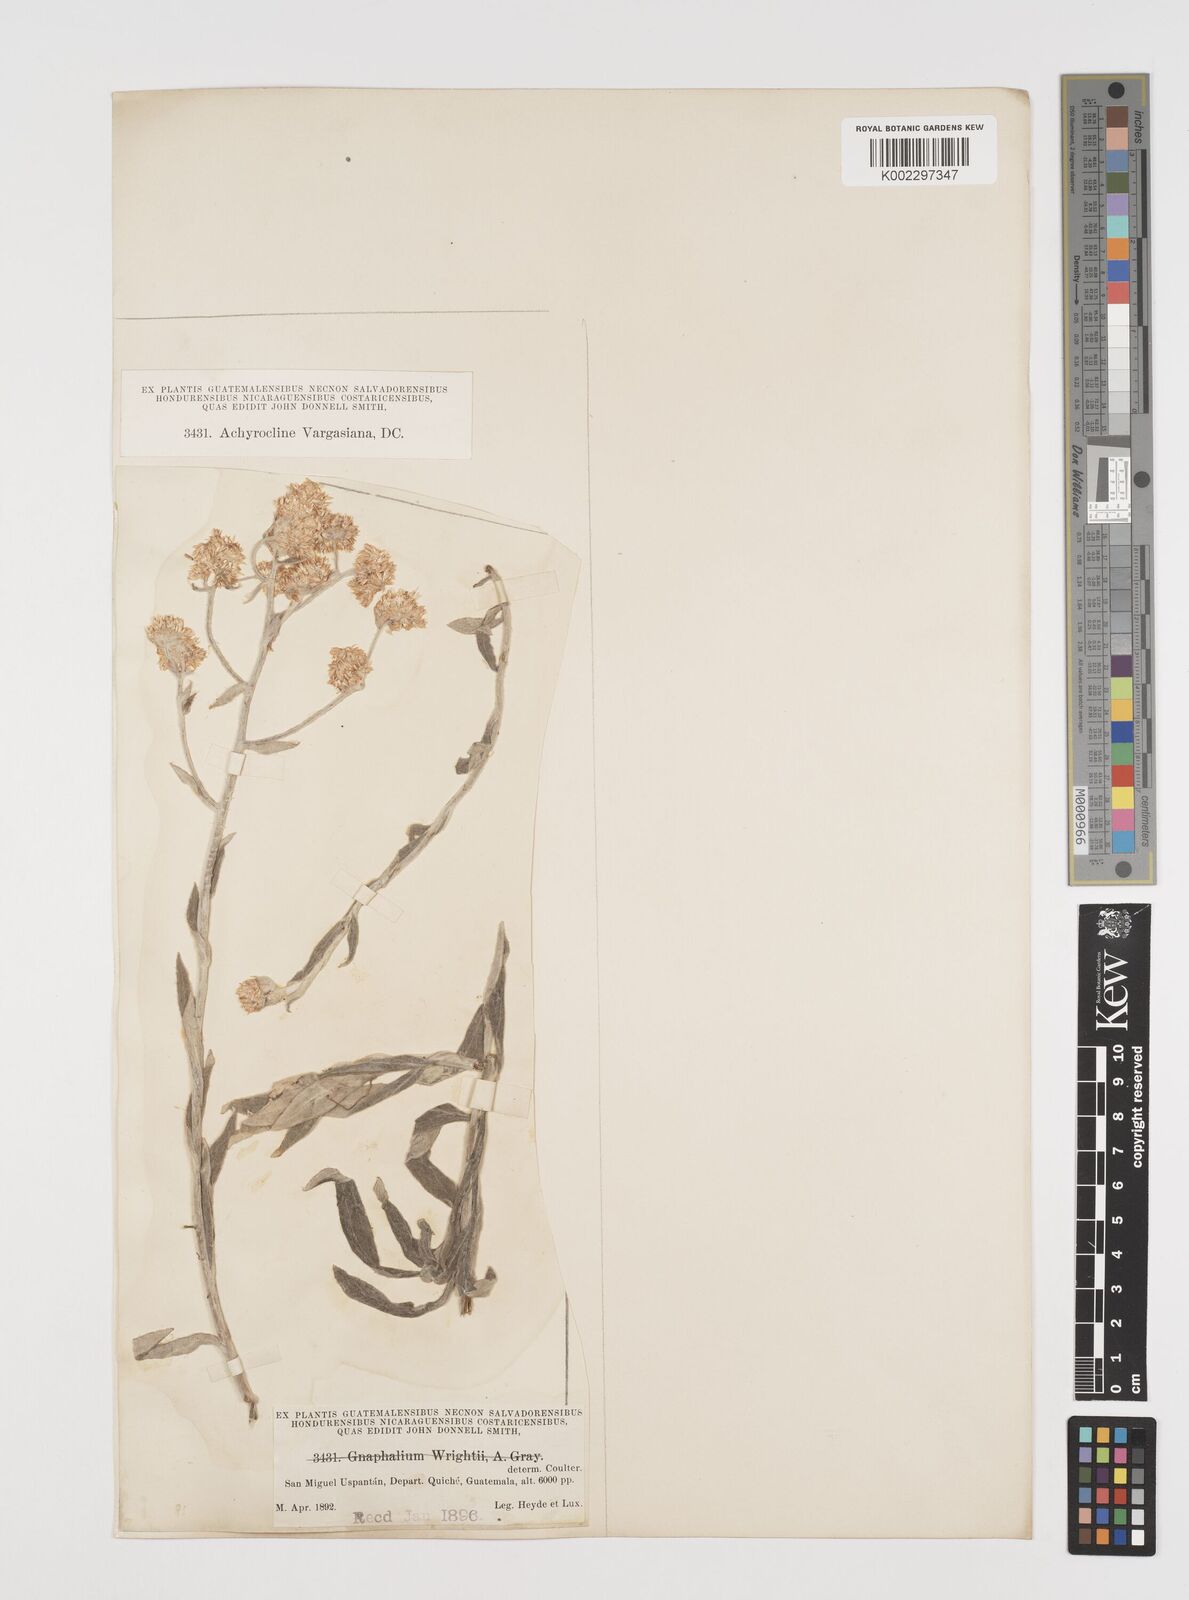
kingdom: Plantae
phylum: Tracheophyta
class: Magnoliopsida
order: Asterales
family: Asteraceae
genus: Achyrocline
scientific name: Achyrocline vargasiana
